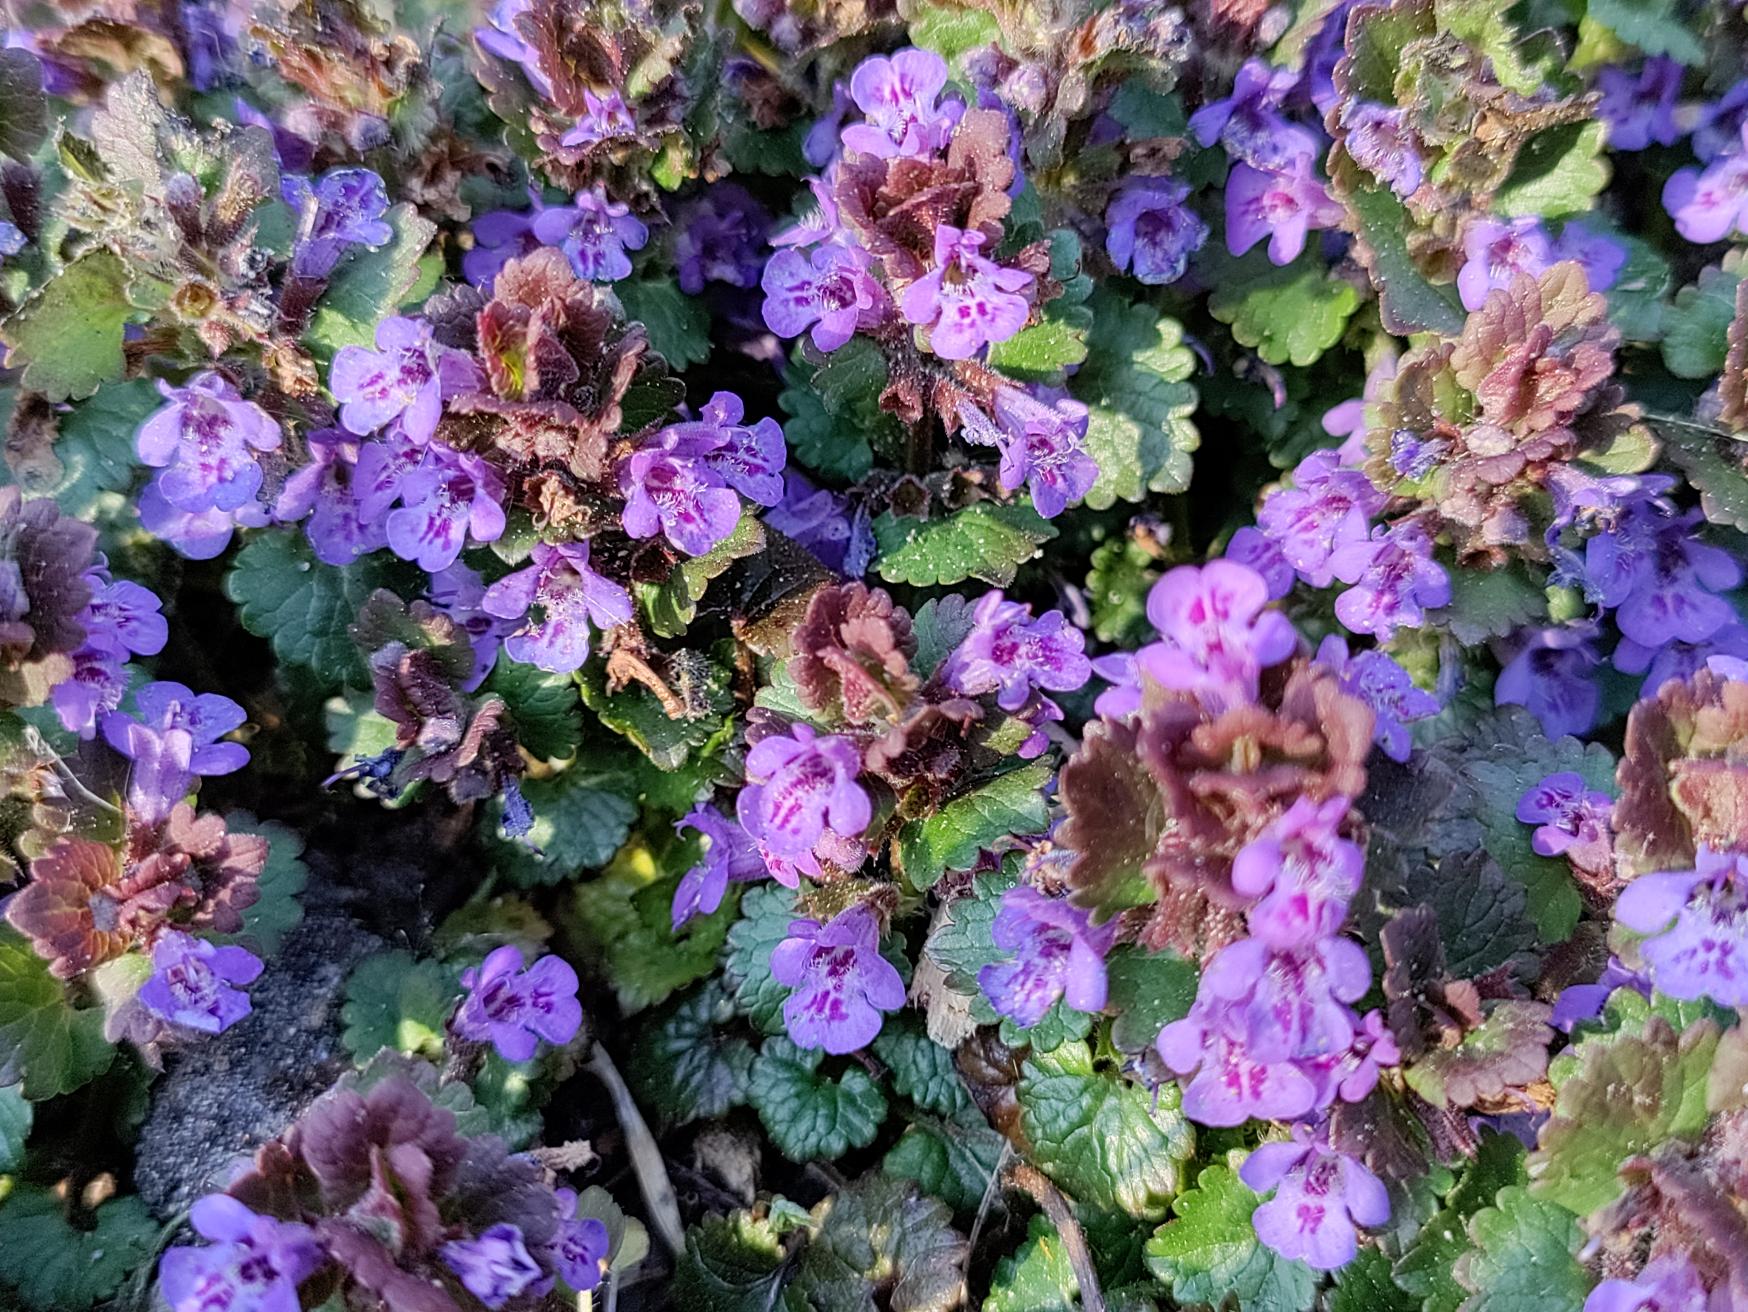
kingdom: Plantae
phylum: Tracheophyta
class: Magnoliopsida
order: Lamiales
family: Lamiaceae
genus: Glechoma
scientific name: Glechoma hederacea
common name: Korsknap
